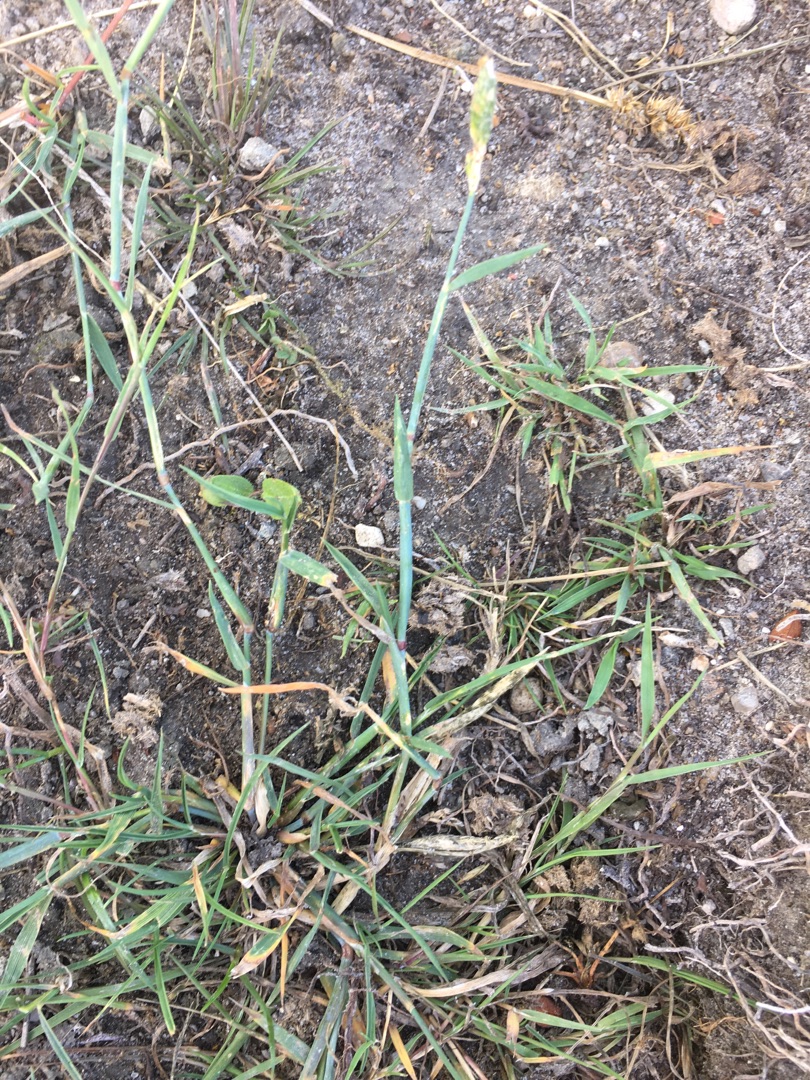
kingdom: Plantae
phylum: Tracheophyta
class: Liliopsida
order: Poales
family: Poaceae
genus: Alopecurus
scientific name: Alopecurus geniculatus
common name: Knæbøjet rævehale
